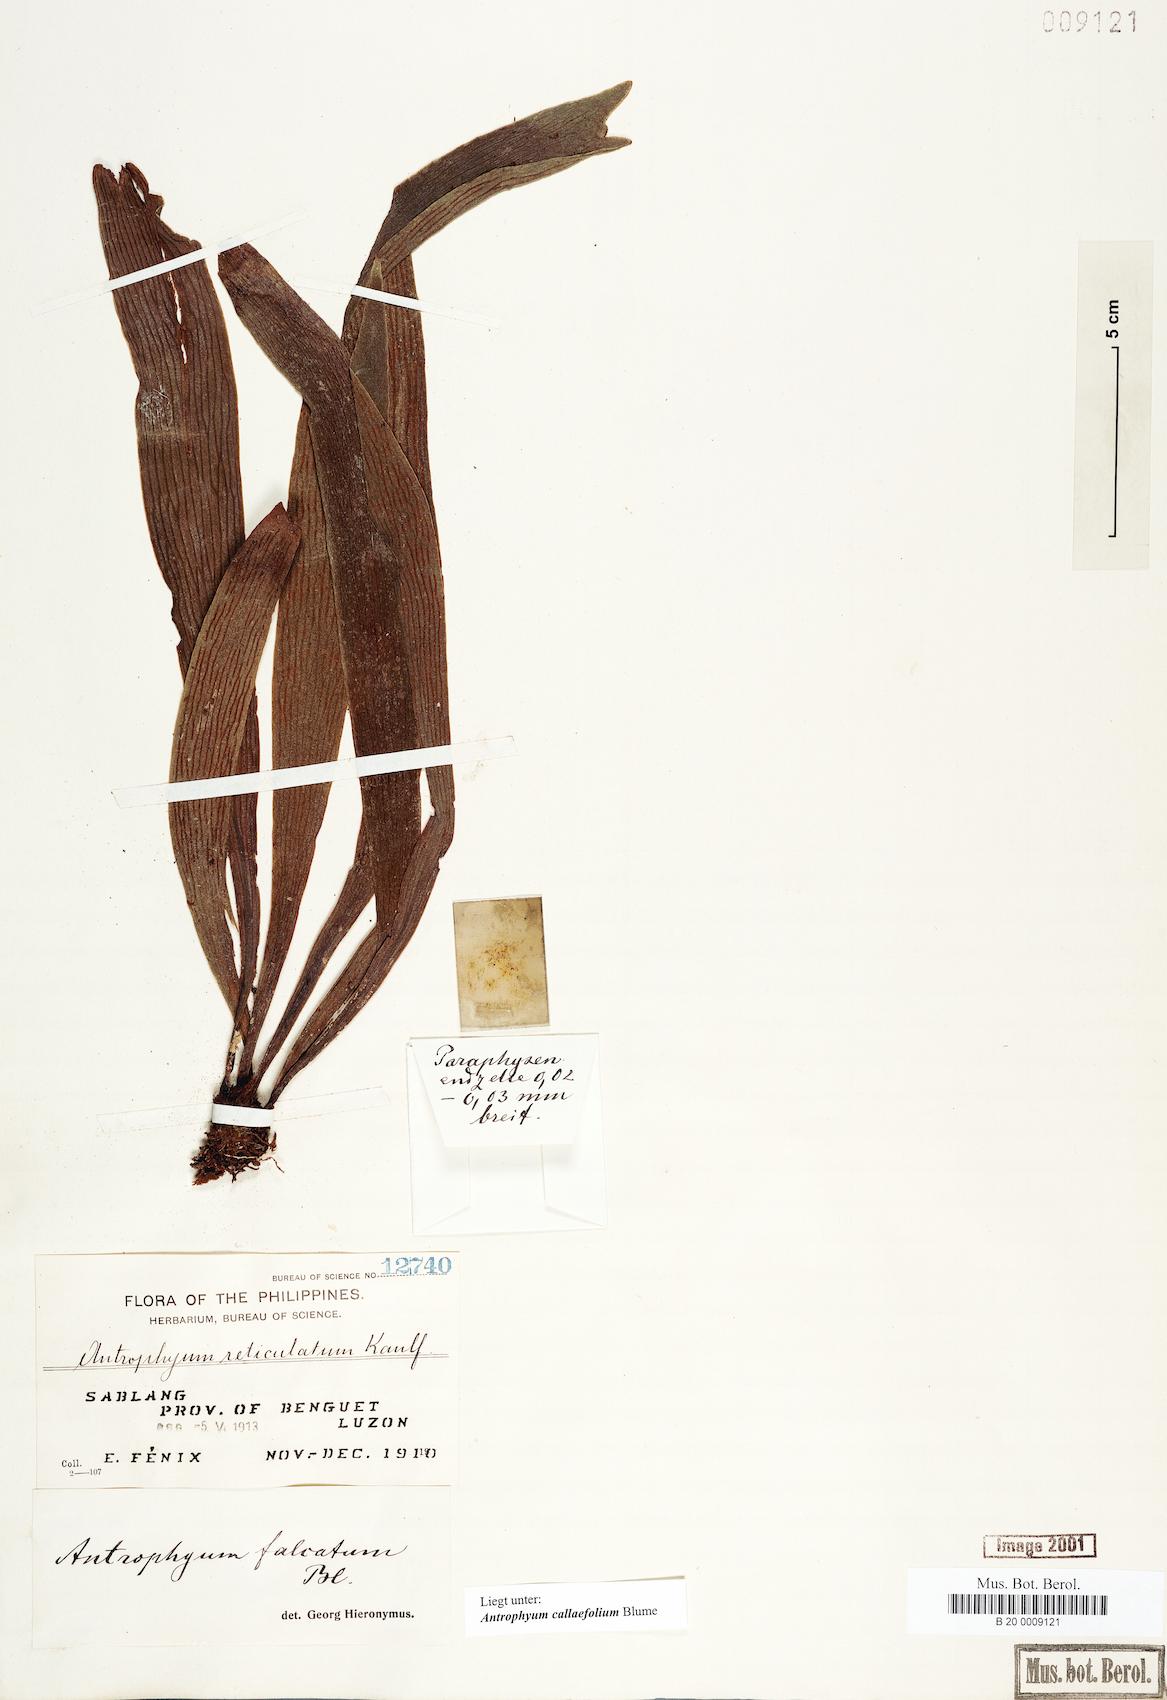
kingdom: Plantae
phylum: Tracheophyta
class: Polypodiopsida
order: Polypodiales
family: Pteridaceae
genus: Antrophyum
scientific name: Antrophyum callifolium
